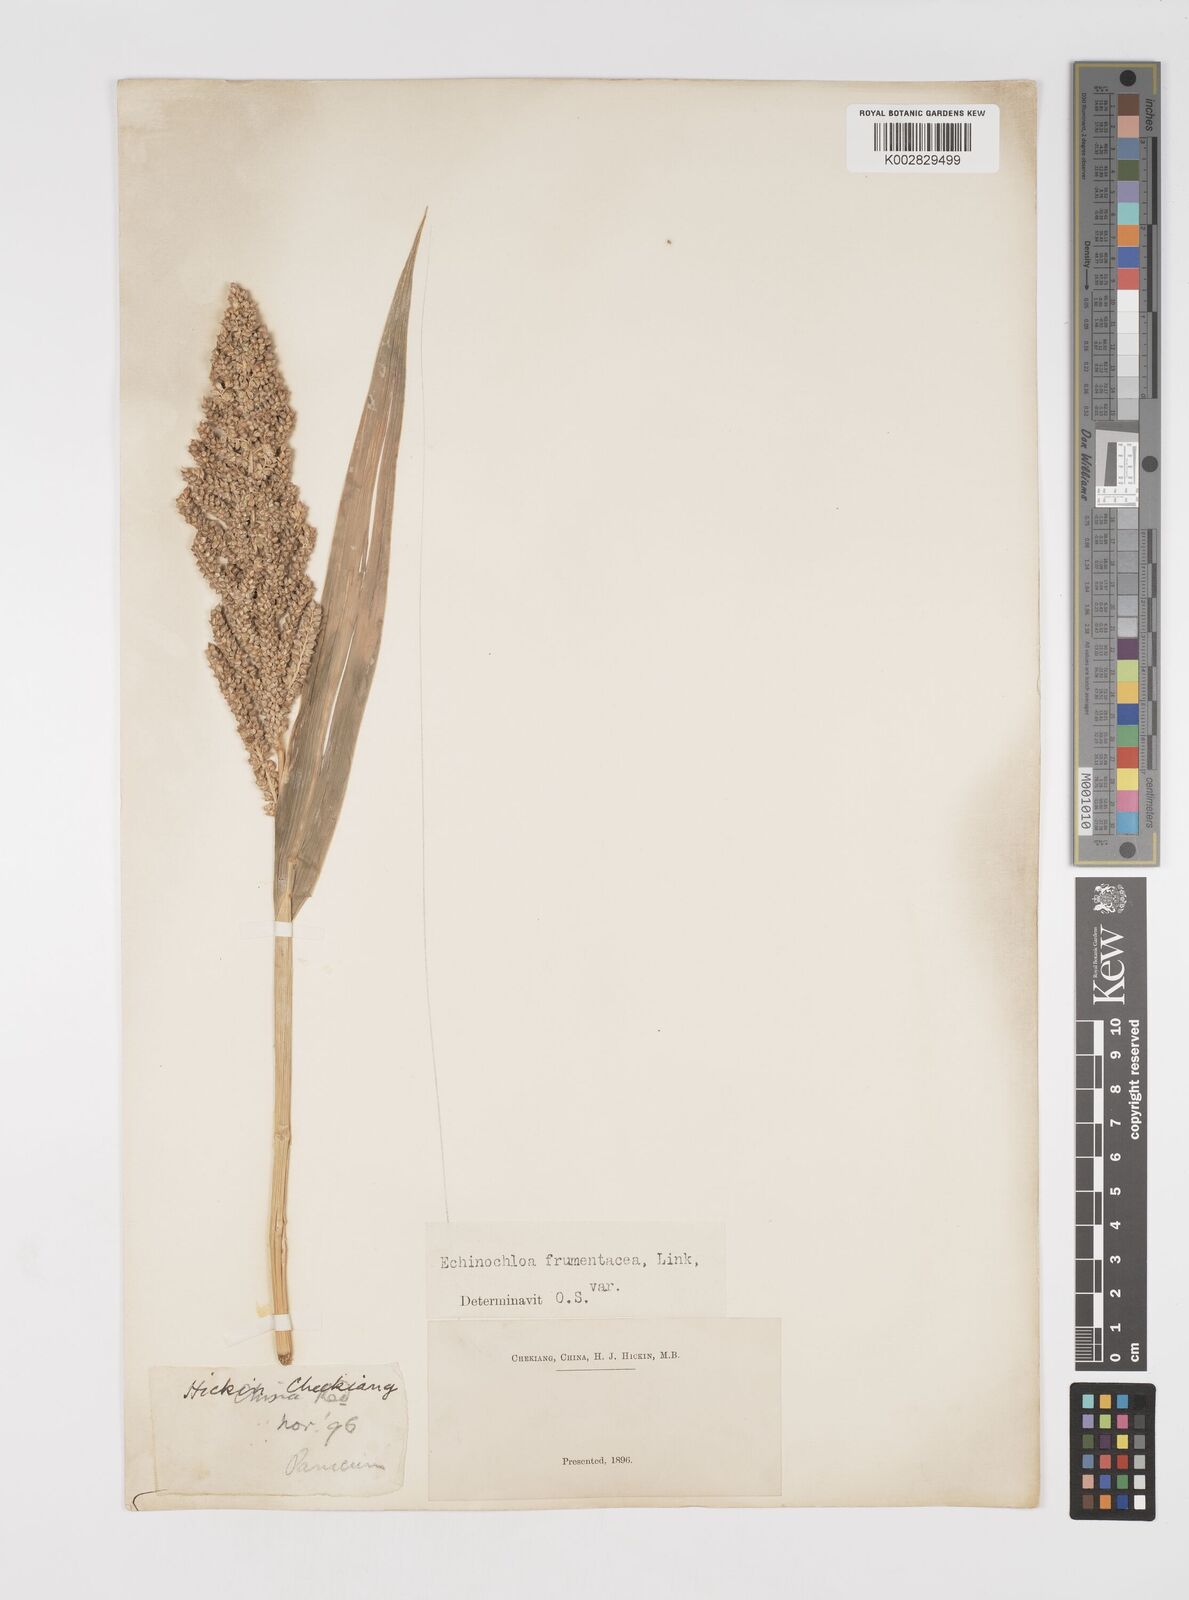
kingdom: Plantae
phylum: Tracheophyta
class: Liliopsida
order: Poales
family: Poaceae
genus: Echinochloa
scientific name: Echinochloa frumentacea
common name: Billion-dollar grass
